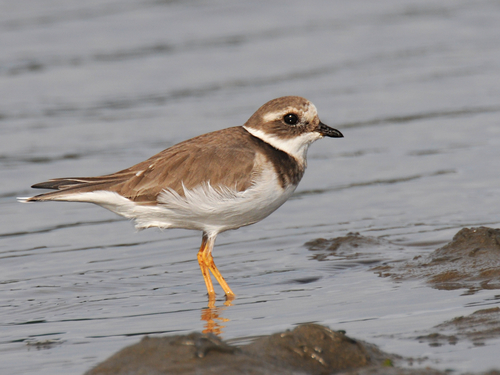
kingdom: Animalia
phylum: Chordata
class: Aves
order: Charadriiformes
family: Charadriidae
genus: Charadrius
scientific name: Charadrius hiaticula
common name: Common ringed plover
